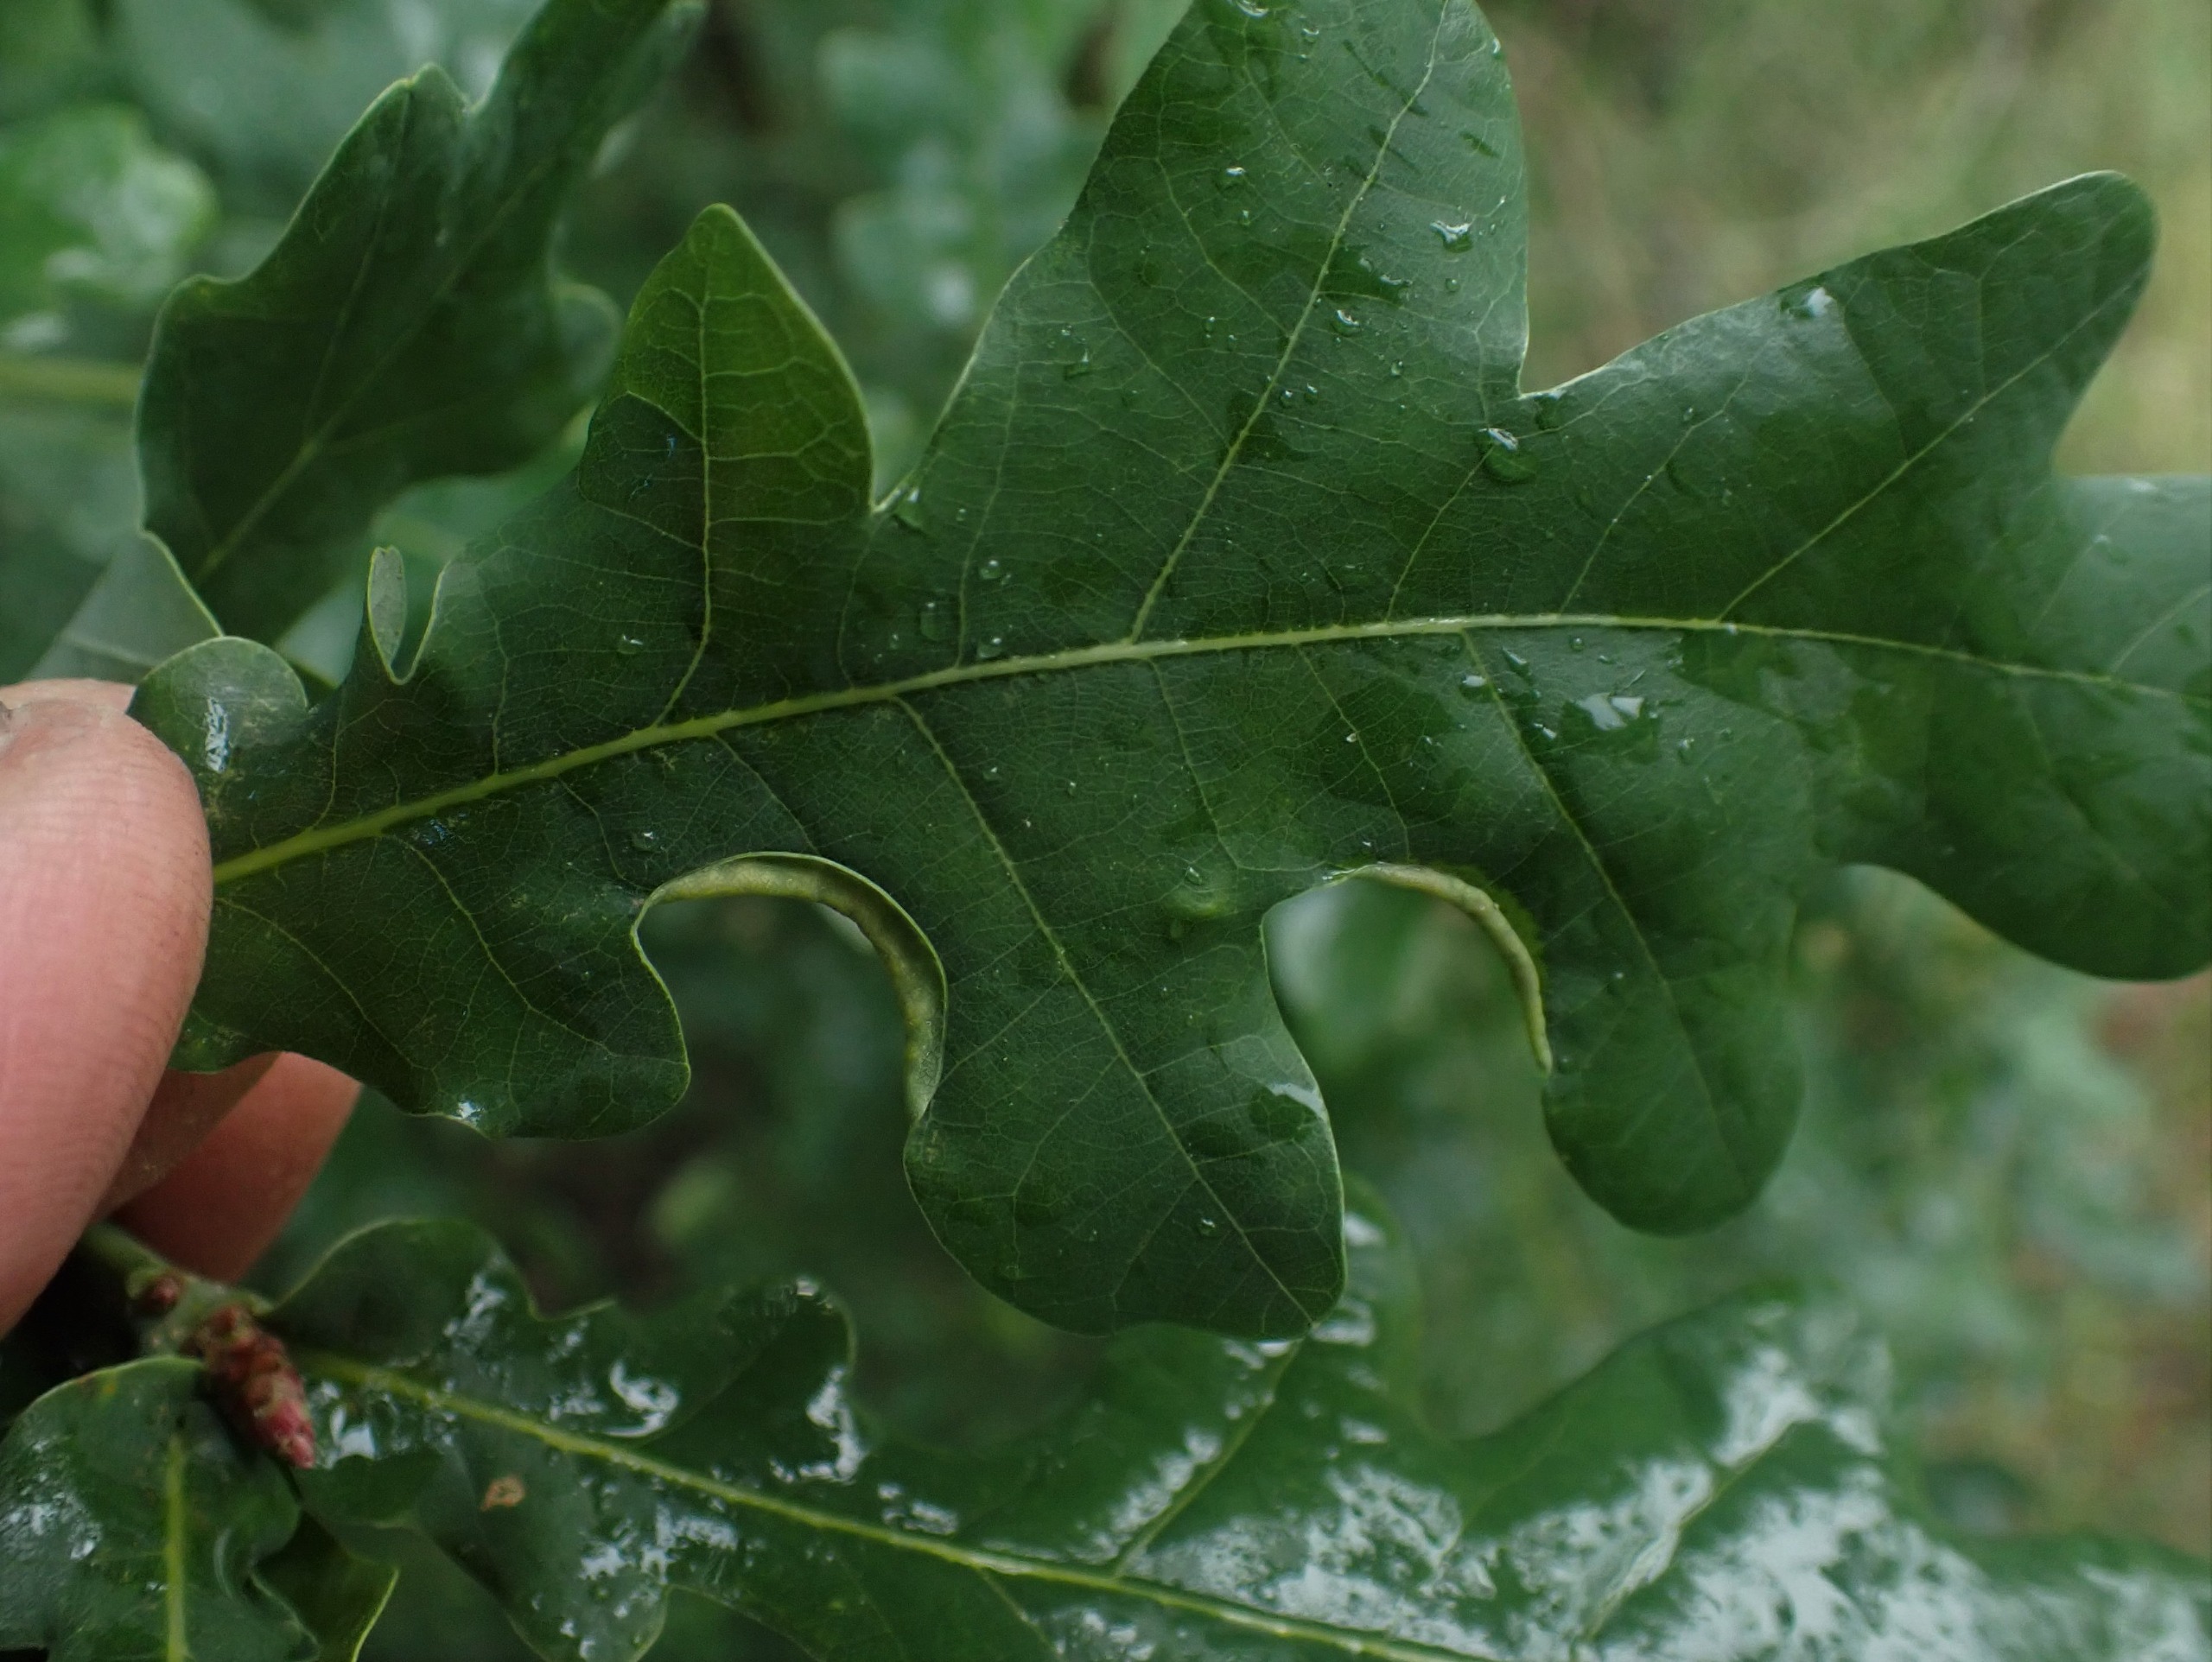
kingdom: Animalia
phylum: Arthropoda
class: Insecta
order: Diptera
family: Cecidomyiidae
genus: Macrodiplosis
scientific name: Macrodiplosis volvens
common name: Egerullegalmyg
